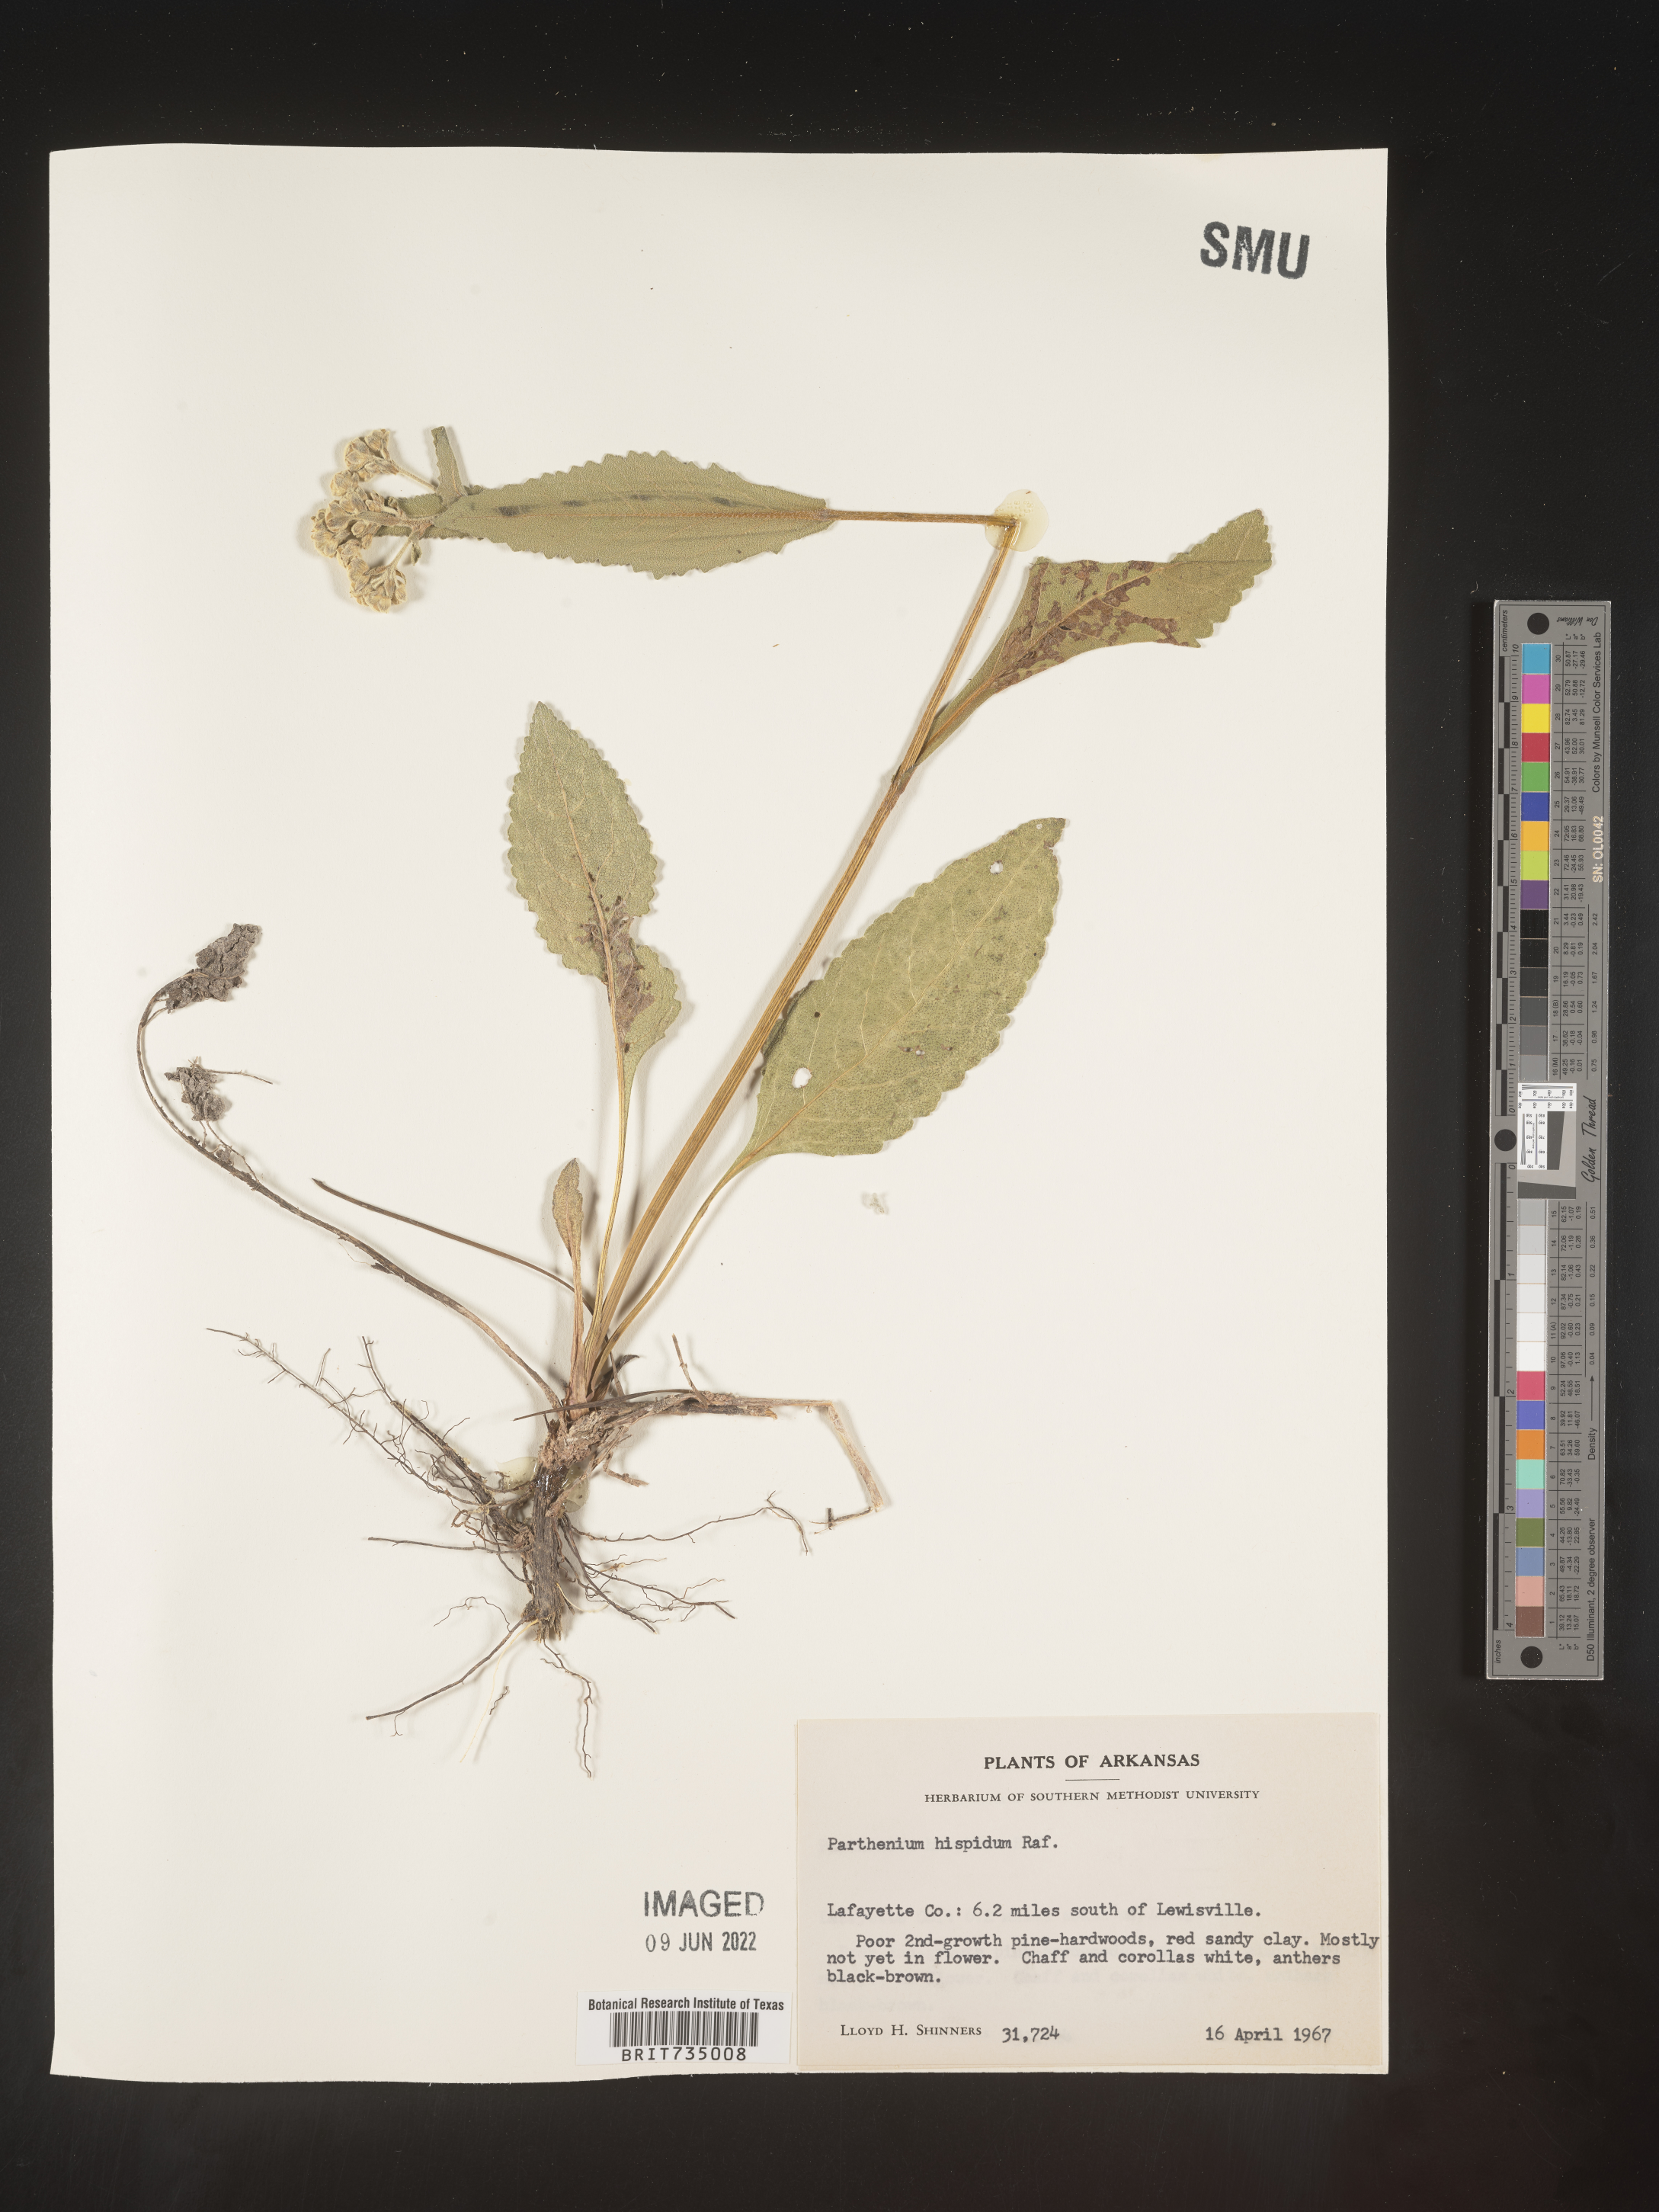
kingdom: Plantae
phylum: Tracheophyta
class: Magnoliopsida
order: Asterales
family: Asteraceae
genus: Parthenium
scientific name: Parthenium hispidum
